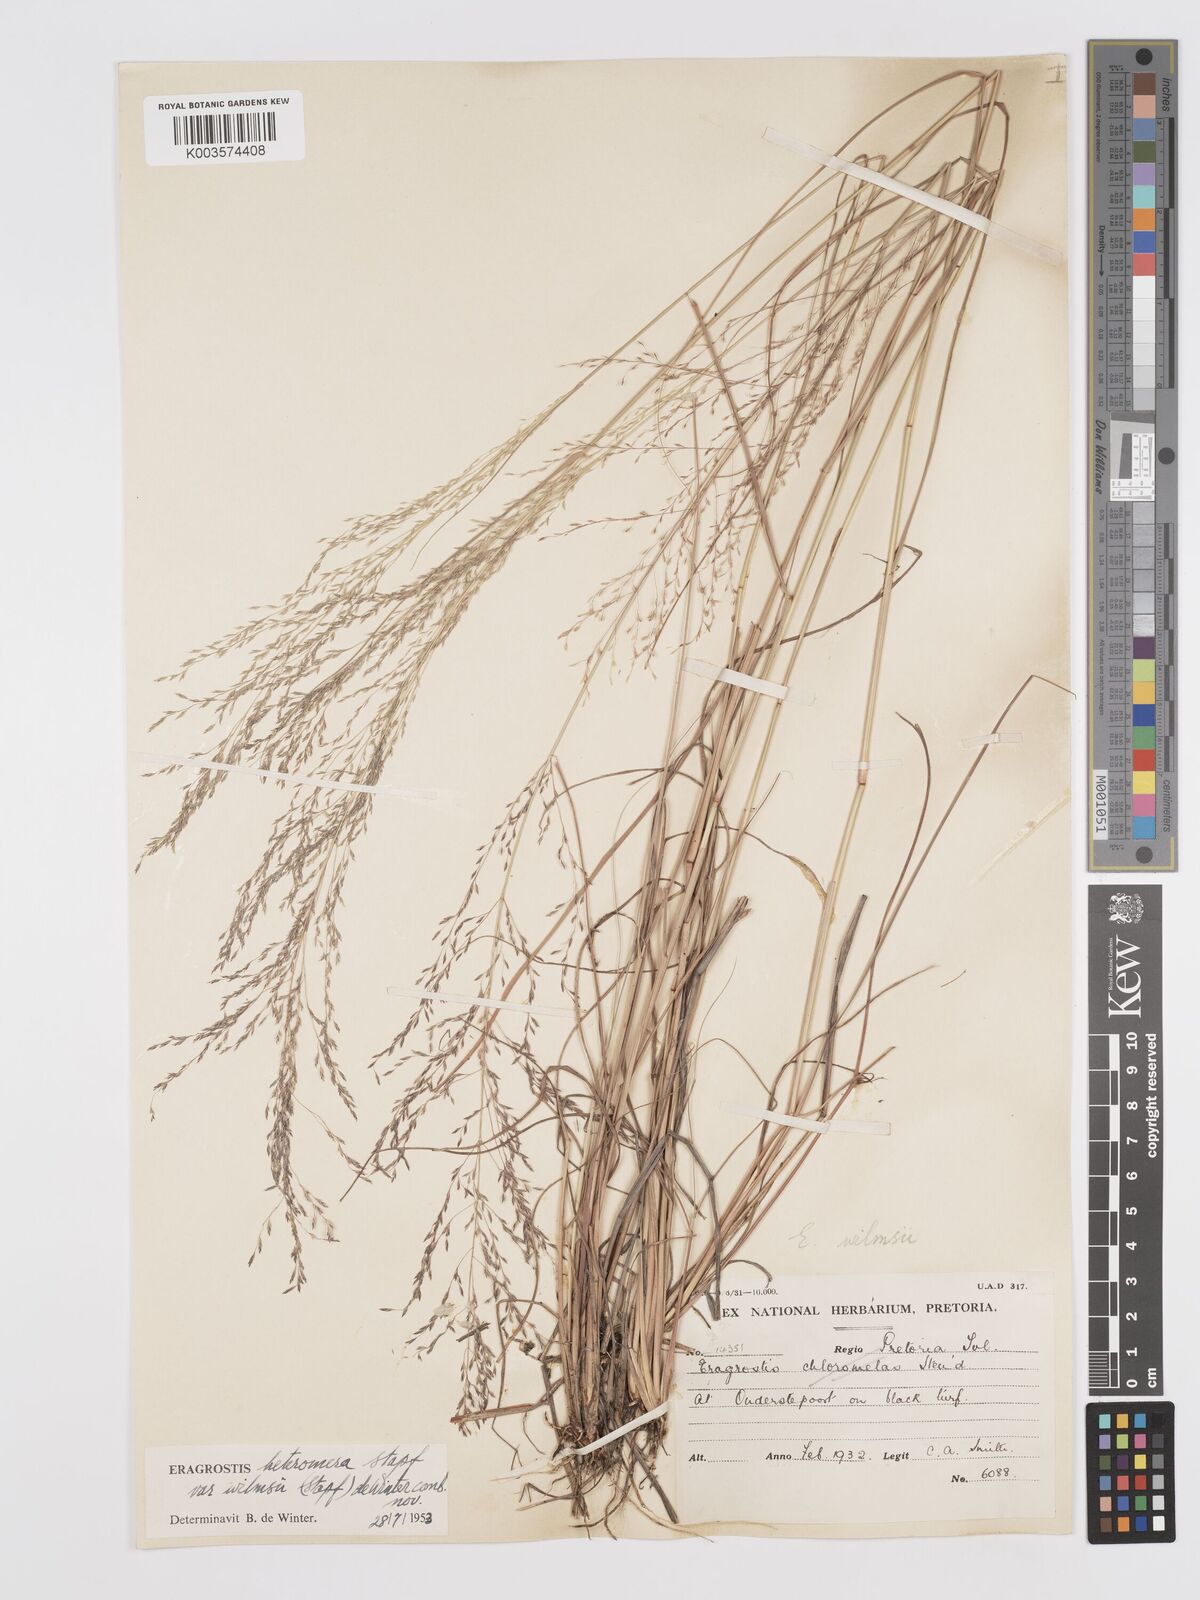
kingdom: Plantae
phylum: Tracheophyta
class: Liliopsida
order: Poales
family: Poaceae
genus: Eragrostis
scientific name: Eragrostis heteromera
